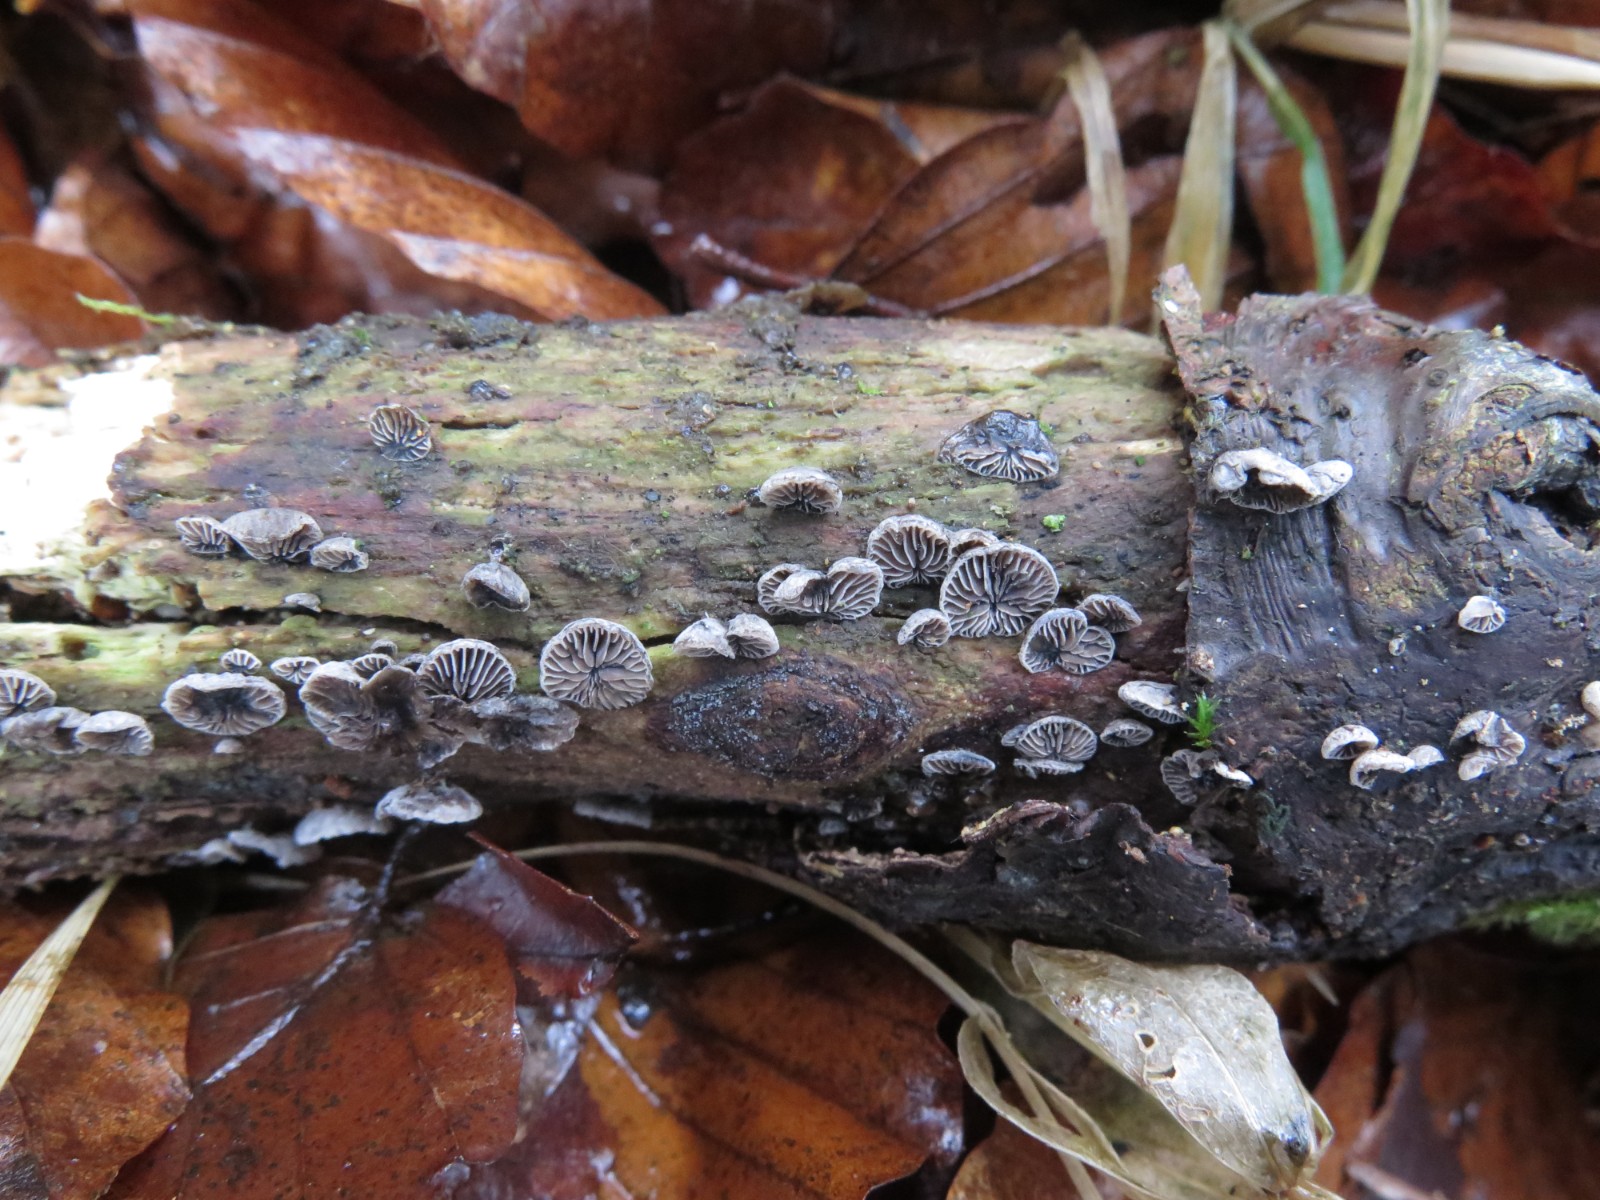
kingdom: Fungi
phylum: Basidiomycota
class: Agaricomycetes
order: Agaricales
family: Pleurotaceae
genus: Resupinatus
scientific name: Resupinatus applicatus
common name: lysfiltet barkhat
